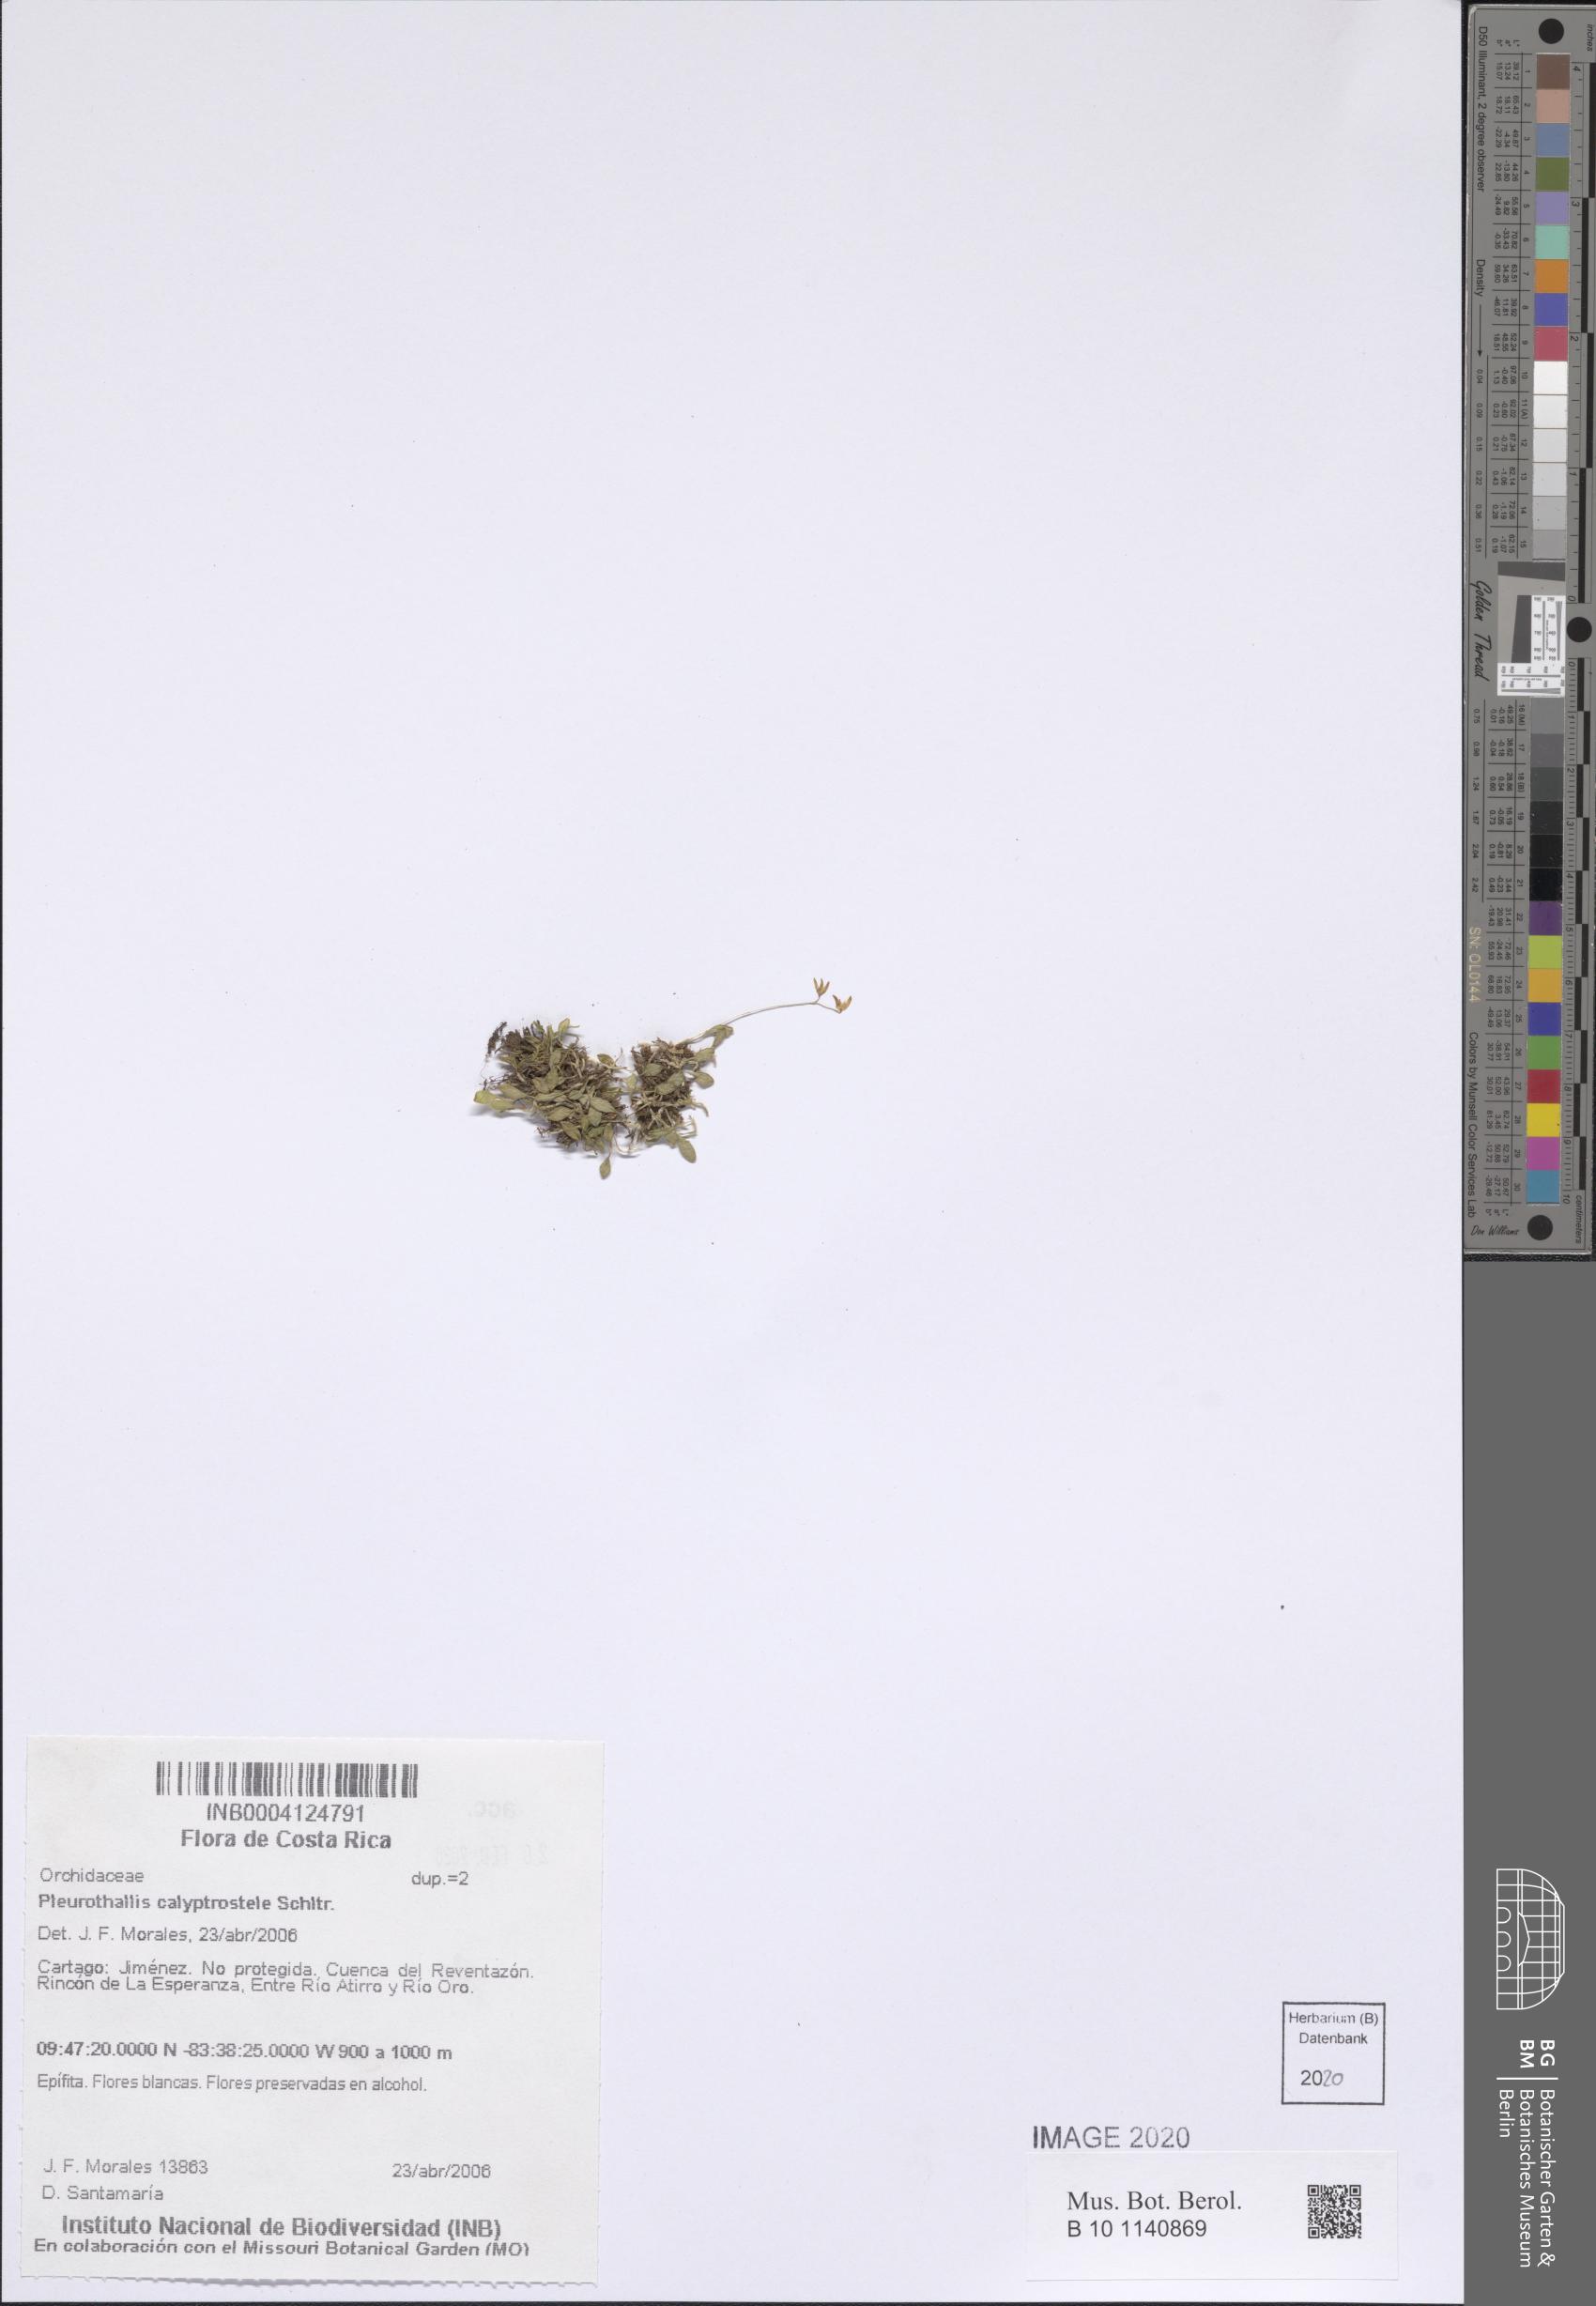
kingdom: Plantae
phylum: Tracheophyta
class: Liliopsida
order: Asparagales
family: Orchidaceae
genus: Specklinia
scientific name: Specklinia calyptrostele
